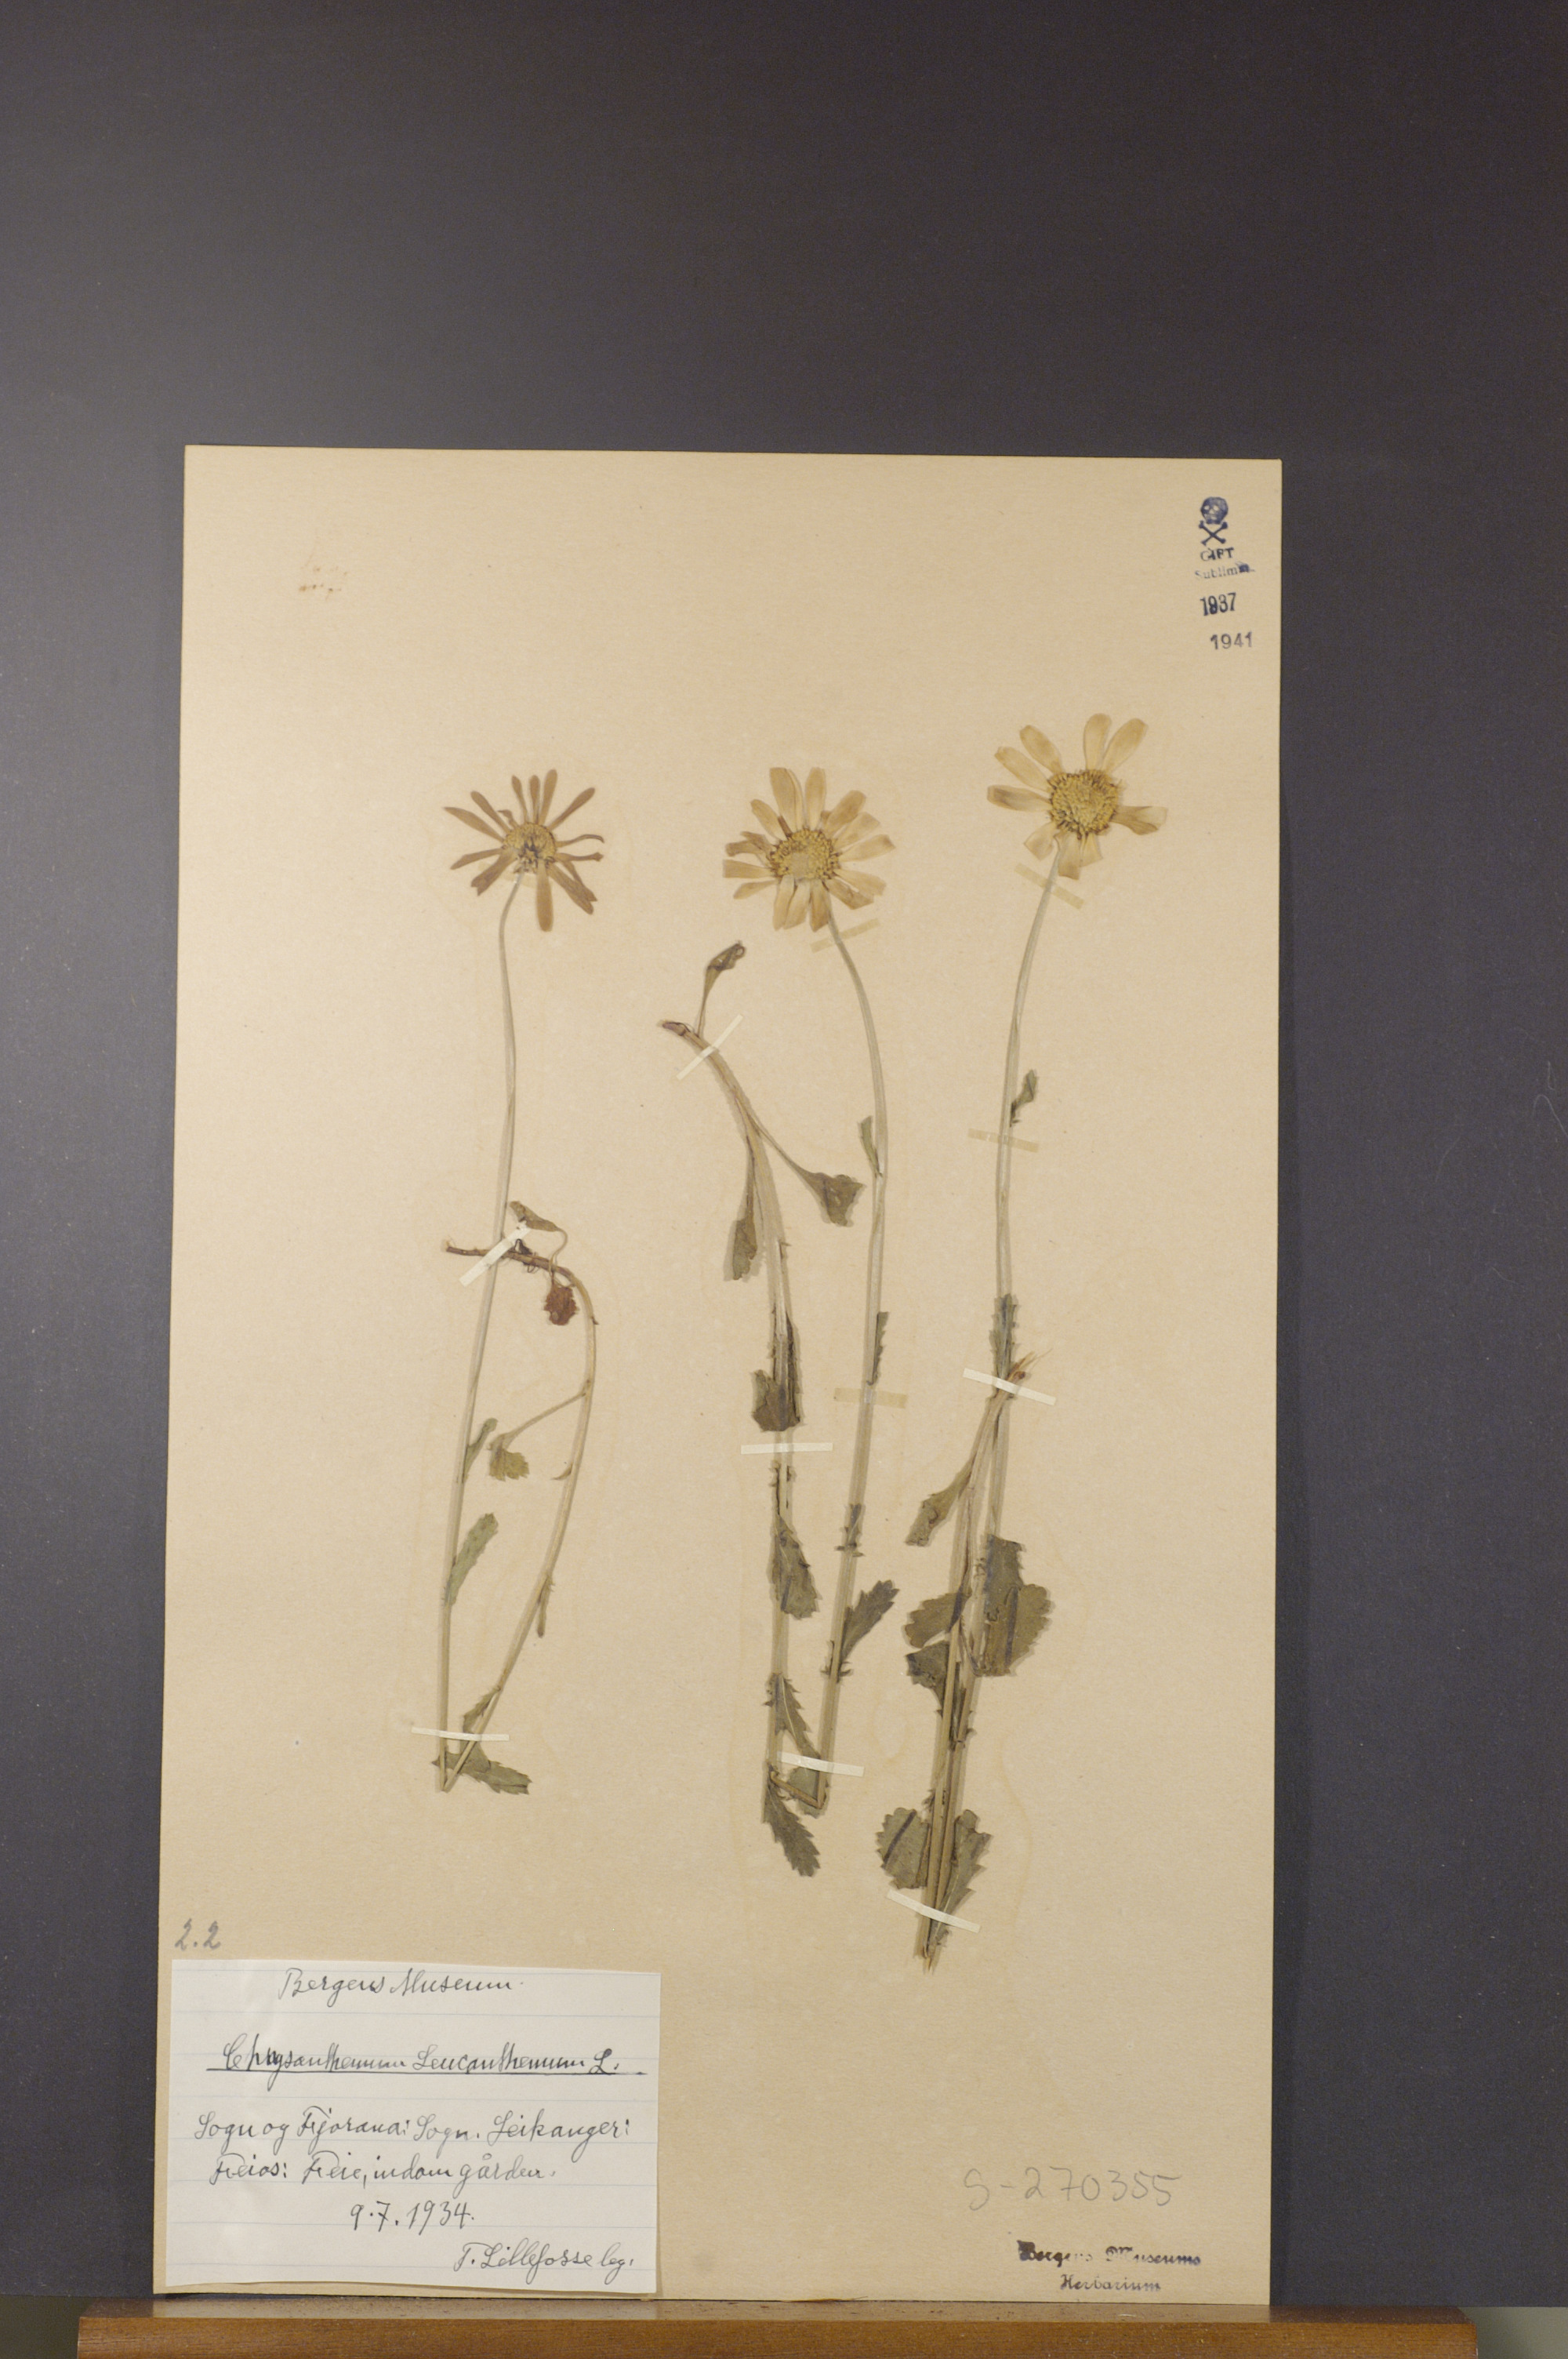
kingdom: Plantae
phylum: Tracheophyta
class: Magnoliopsida
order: Asterales
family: Asteraceae
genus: Leucanthemum
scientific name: Leucanthemum vulgare
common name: Oxeye daisy
